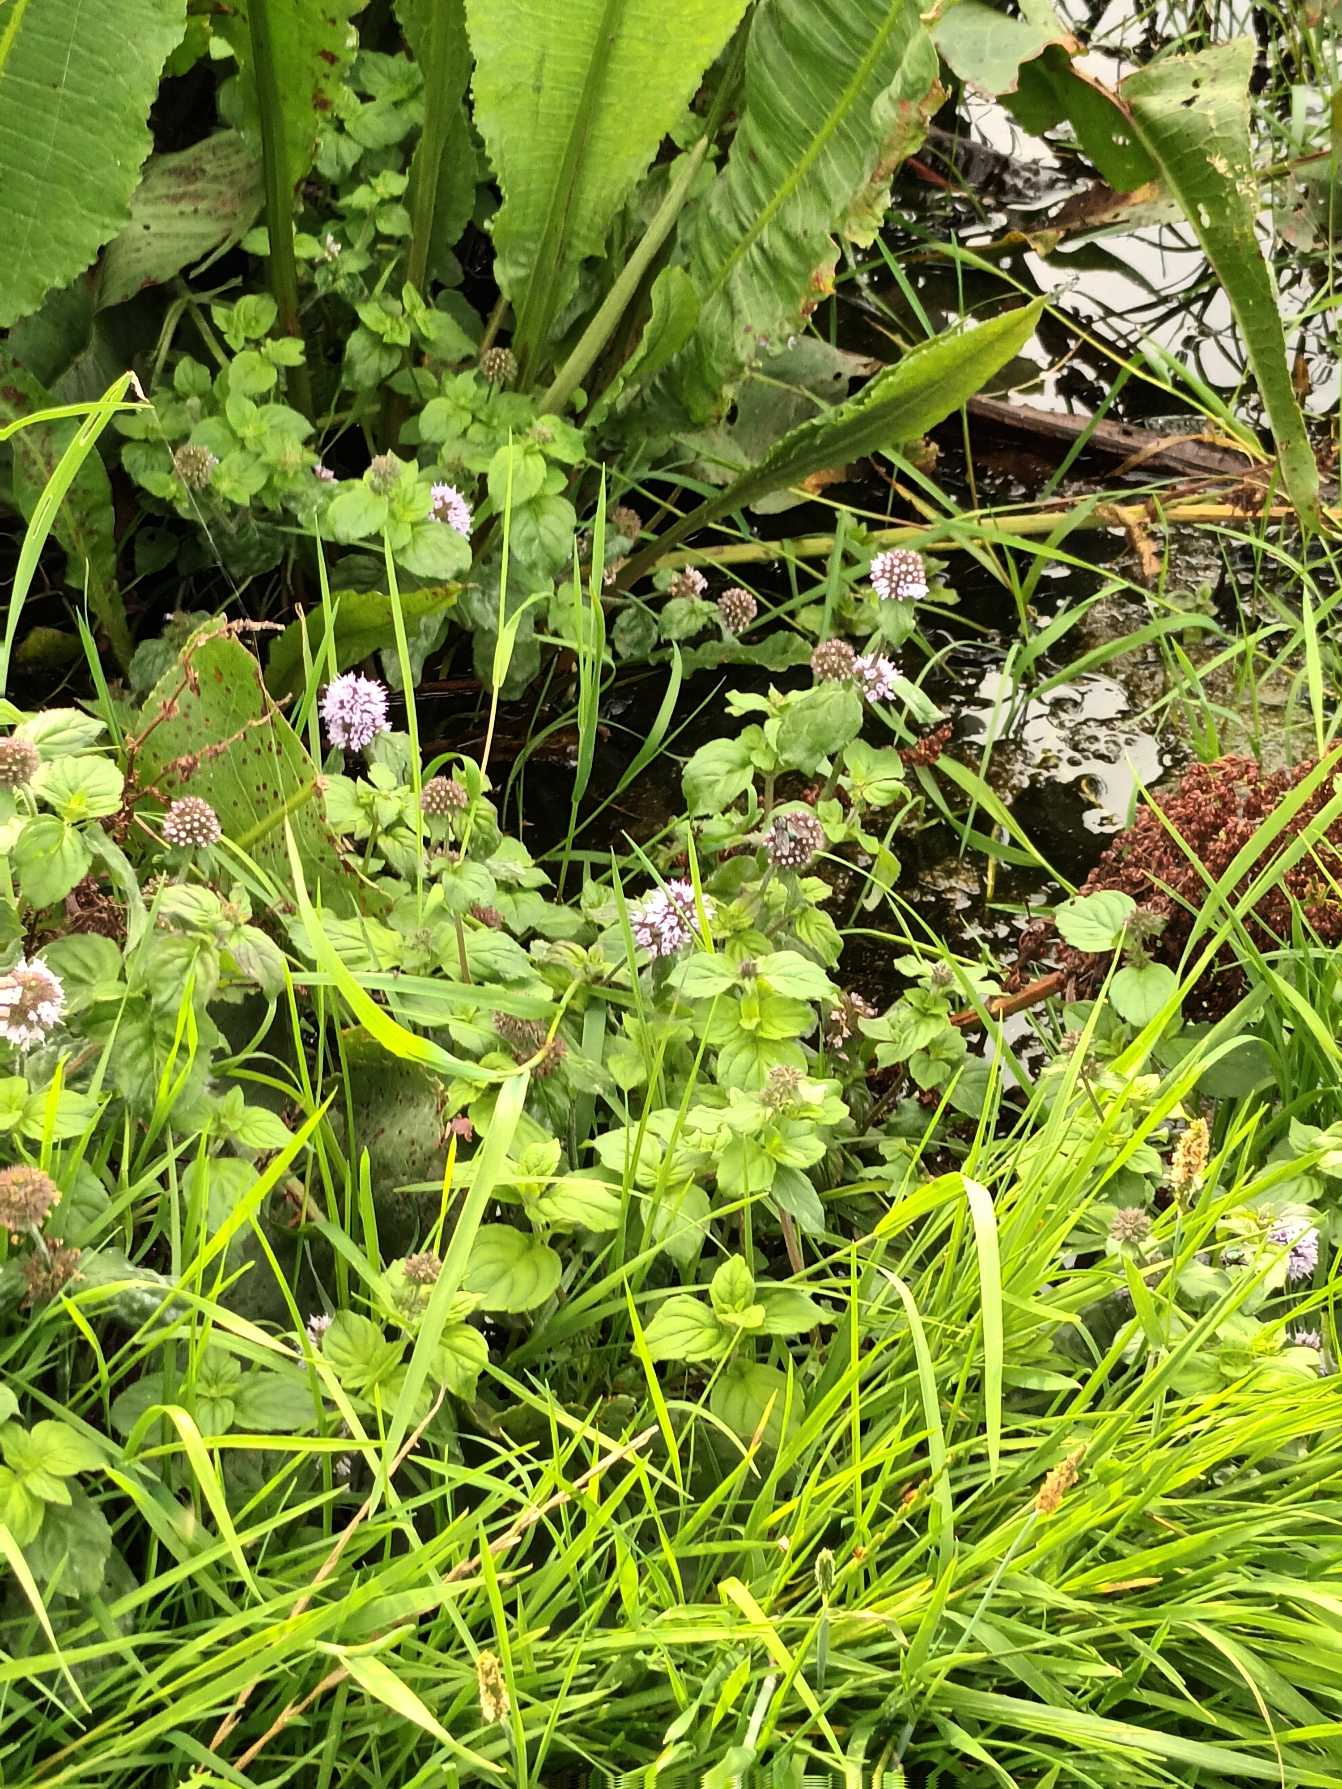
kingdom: Plantae
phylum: Tracheophyta
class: Magnoliopsida
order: Lamiales
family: Lamiaceae
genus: Mentha
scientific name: Mentha aquatica
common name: Vand-mynte
